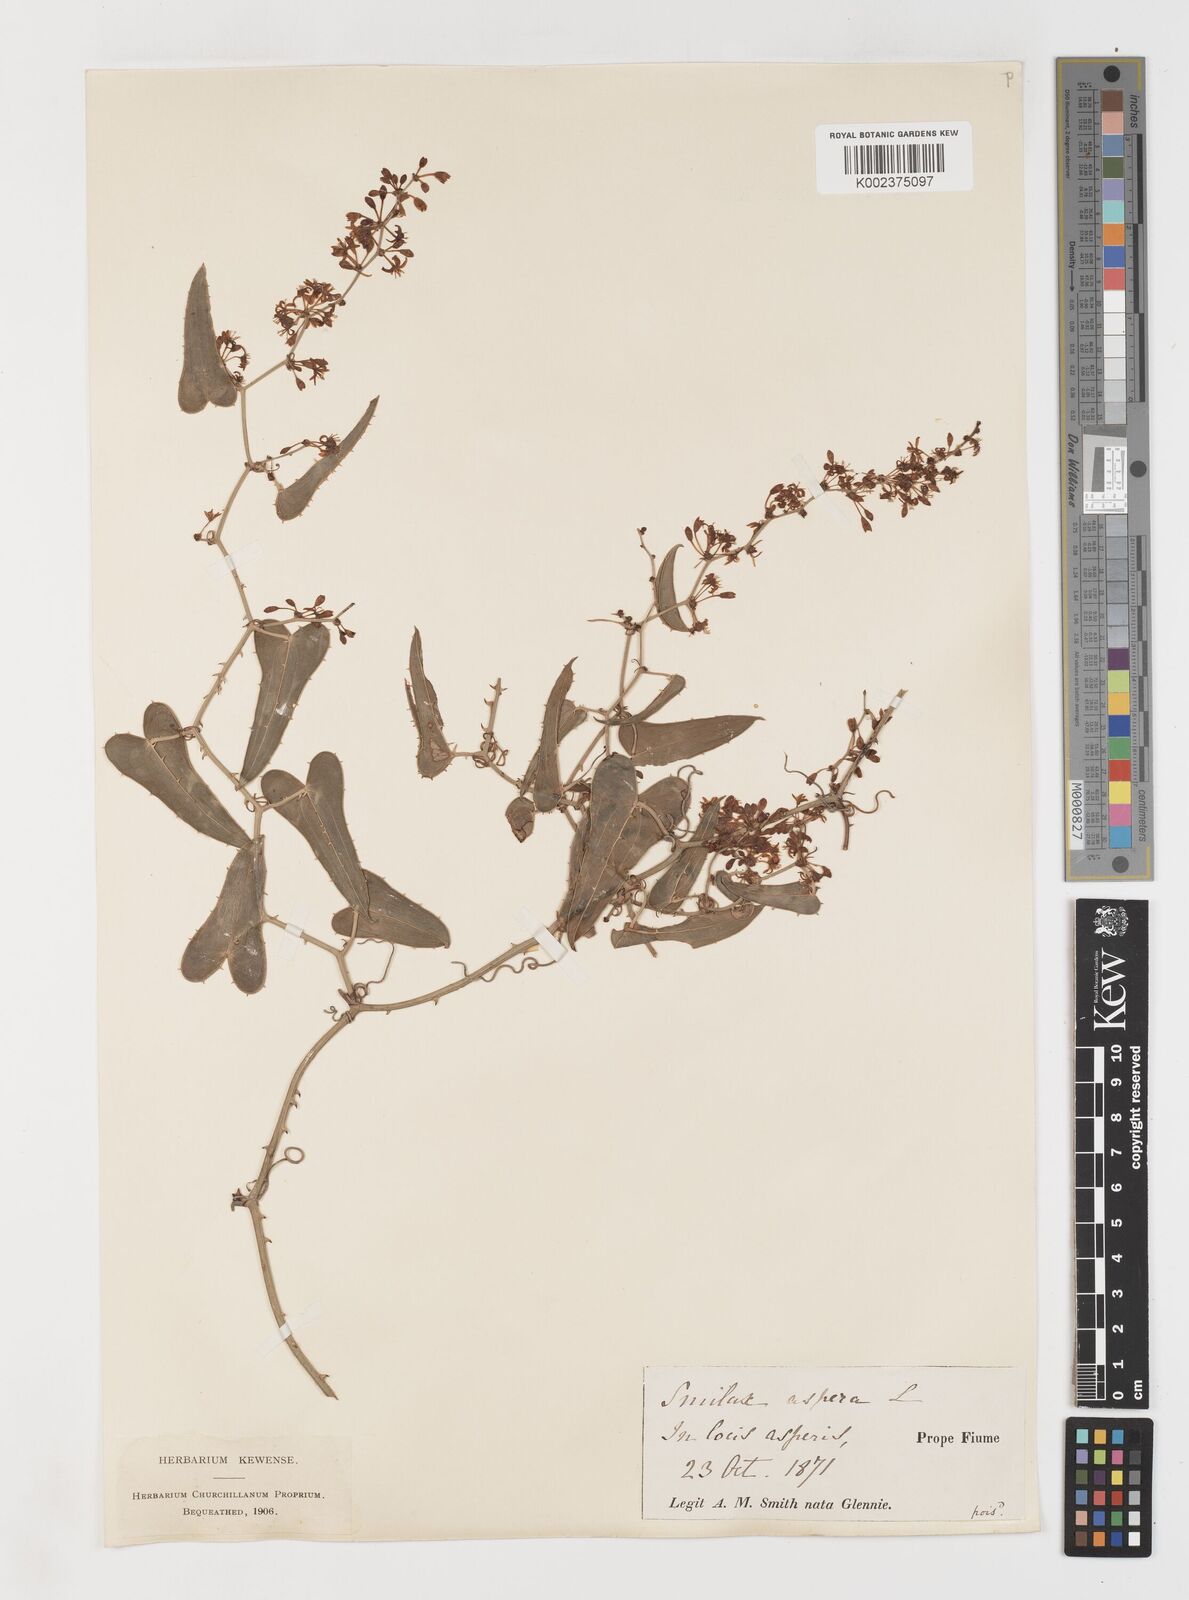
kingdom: Plantae
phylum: Tracheophyta
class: Liliopsida
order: Liliales
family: Smilacaceae
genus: Smilax
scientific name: Smilax aspera
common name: Common smilax
